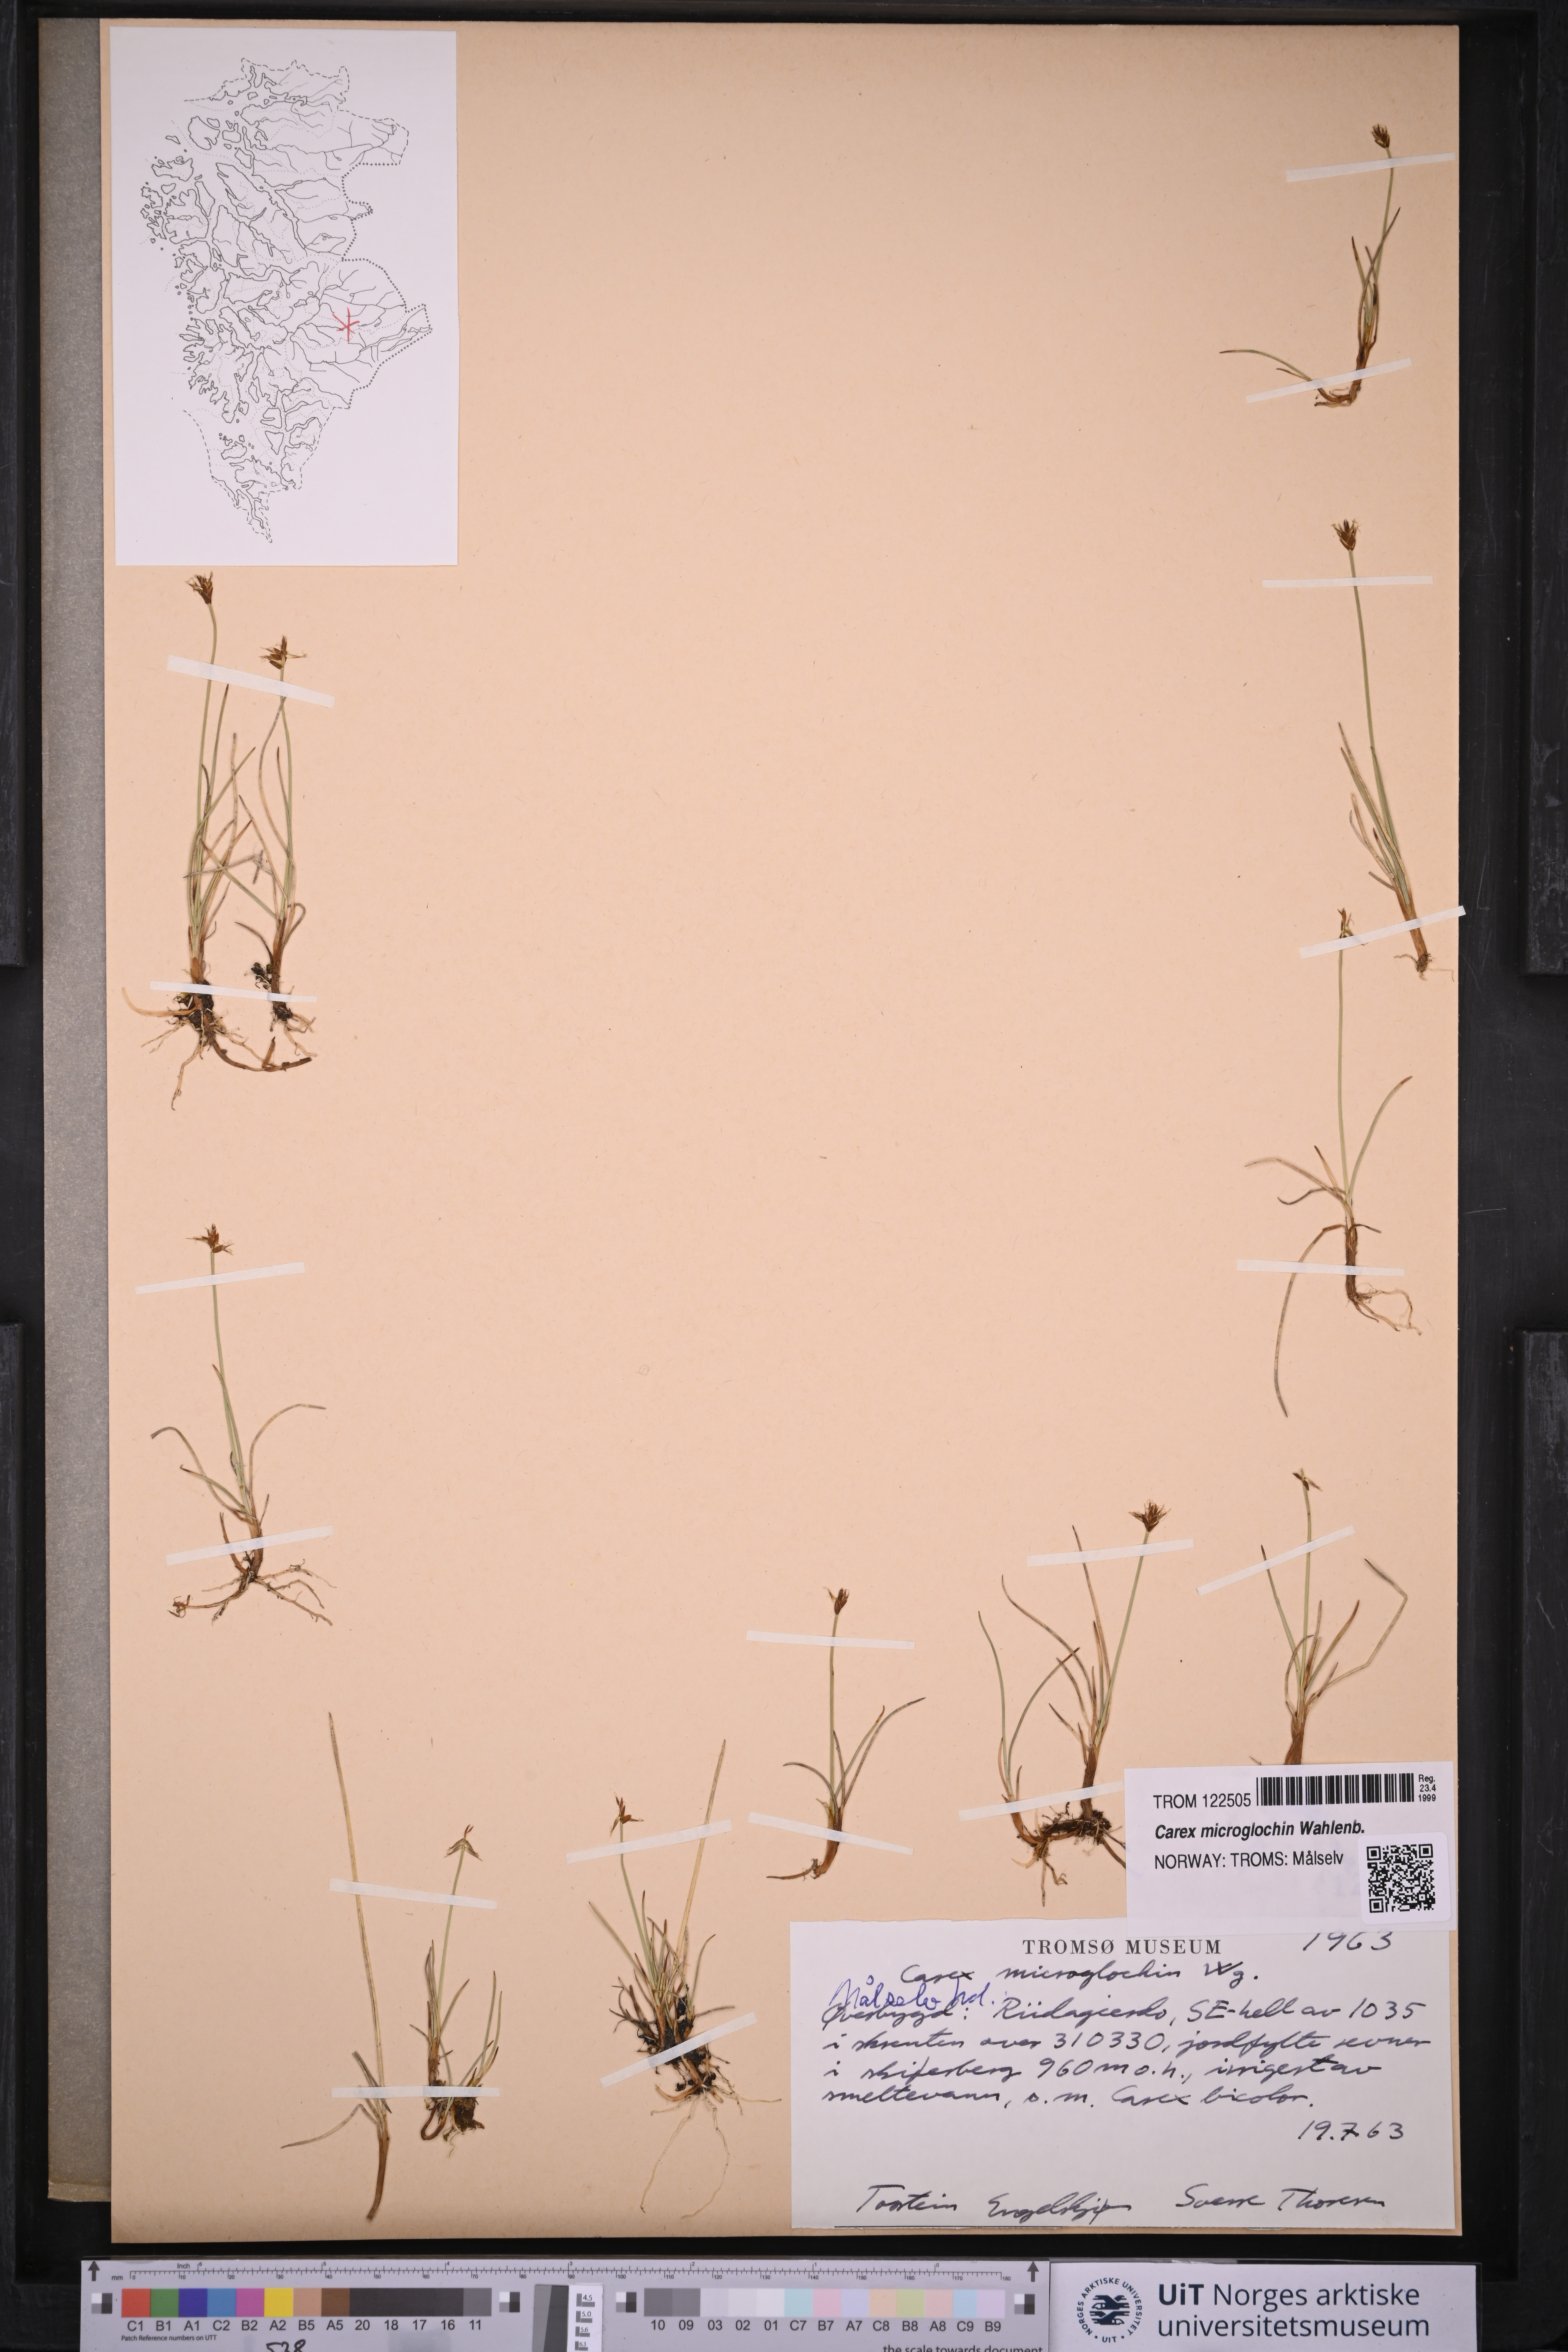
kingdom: Plantae
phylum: Tracheophyta
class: Liliopsida
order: Poales
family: Cyperaceae
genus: Carex
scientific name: Carex microglochin
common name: Bristle sedge
